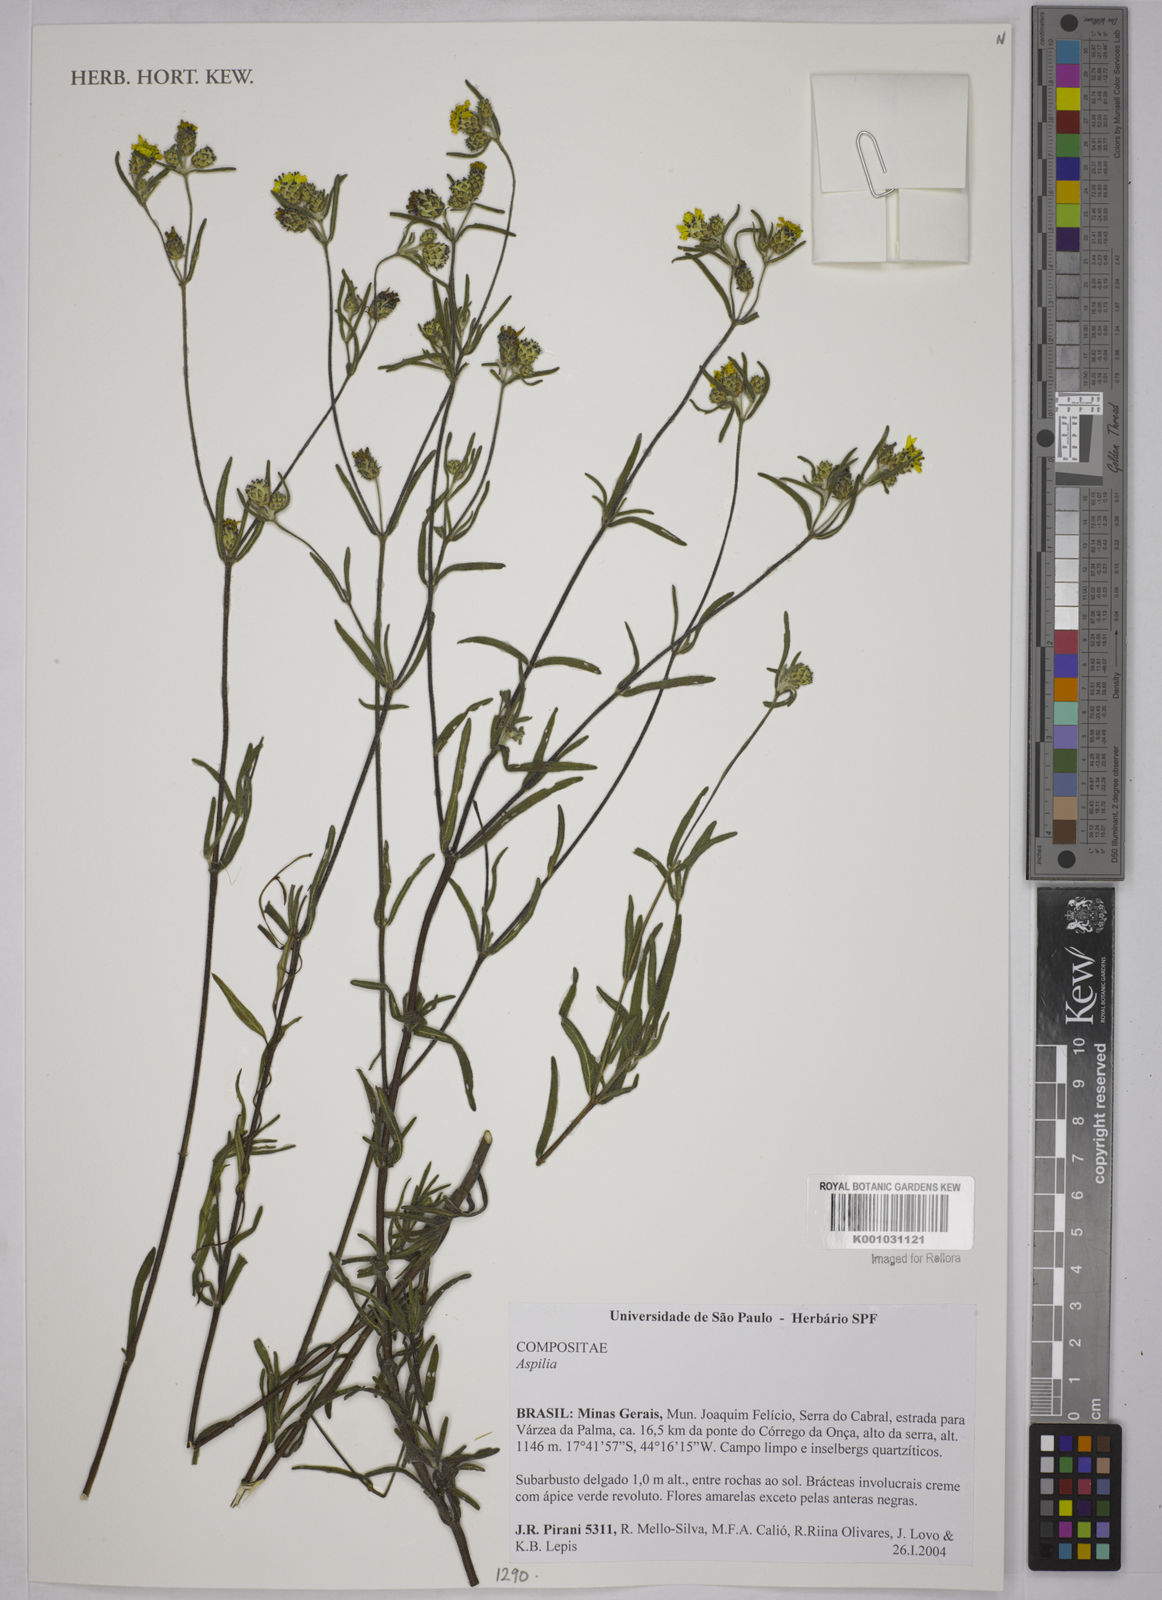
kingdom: Plantae
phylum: Tracheophyta
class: Magnoliopsida
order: Asterales
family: Asteraceae
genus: Aspilia
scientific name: Aspilia
